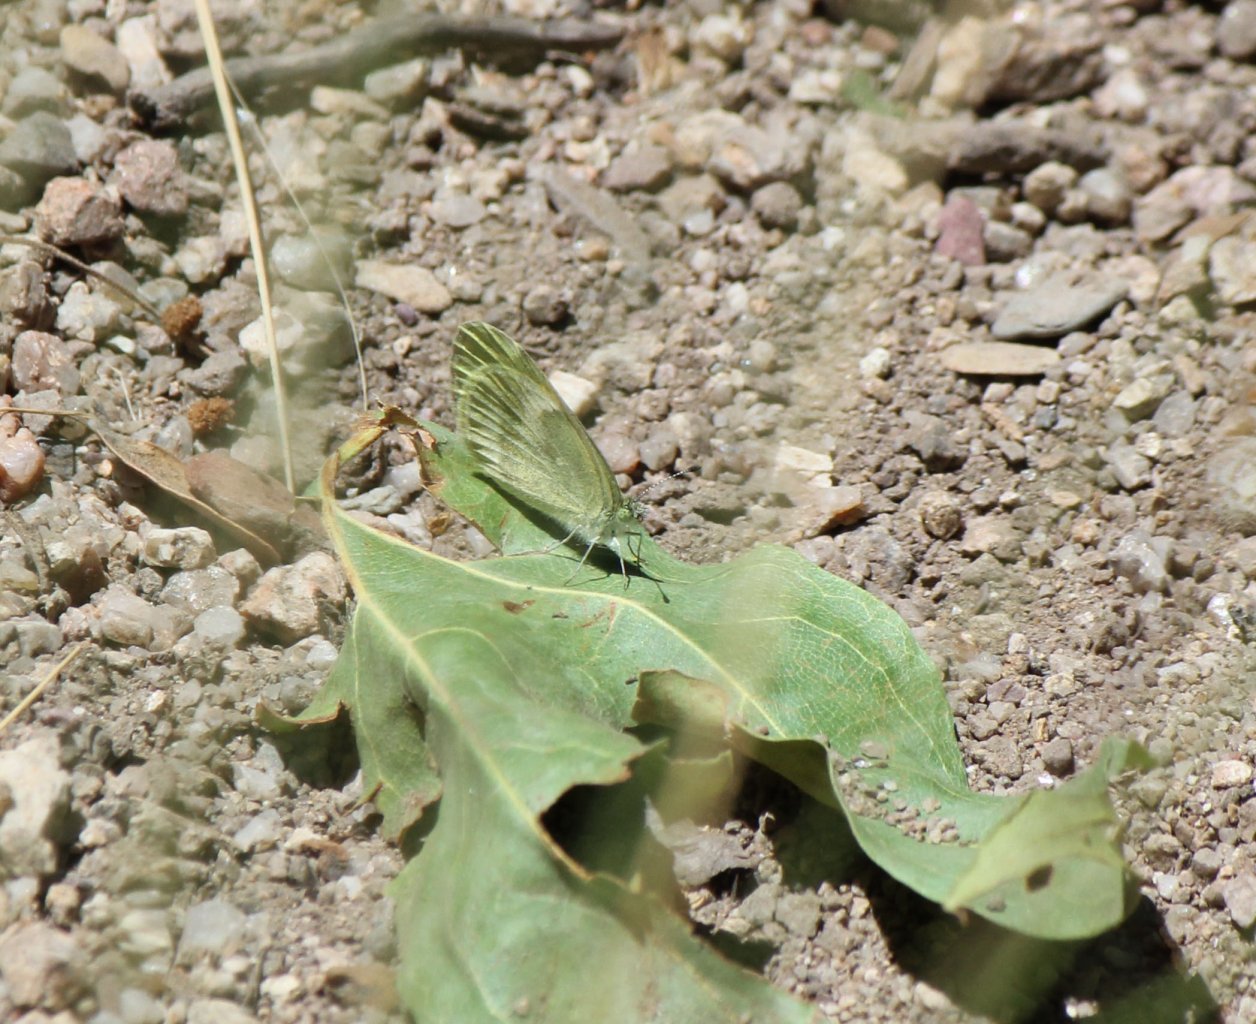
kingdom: Animalia
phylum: Arthropoda
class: Insecta
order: Lepidoptera
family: Pieridae
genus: Nathalis
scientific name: Nathalis iole
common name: Dainty Sulphur
